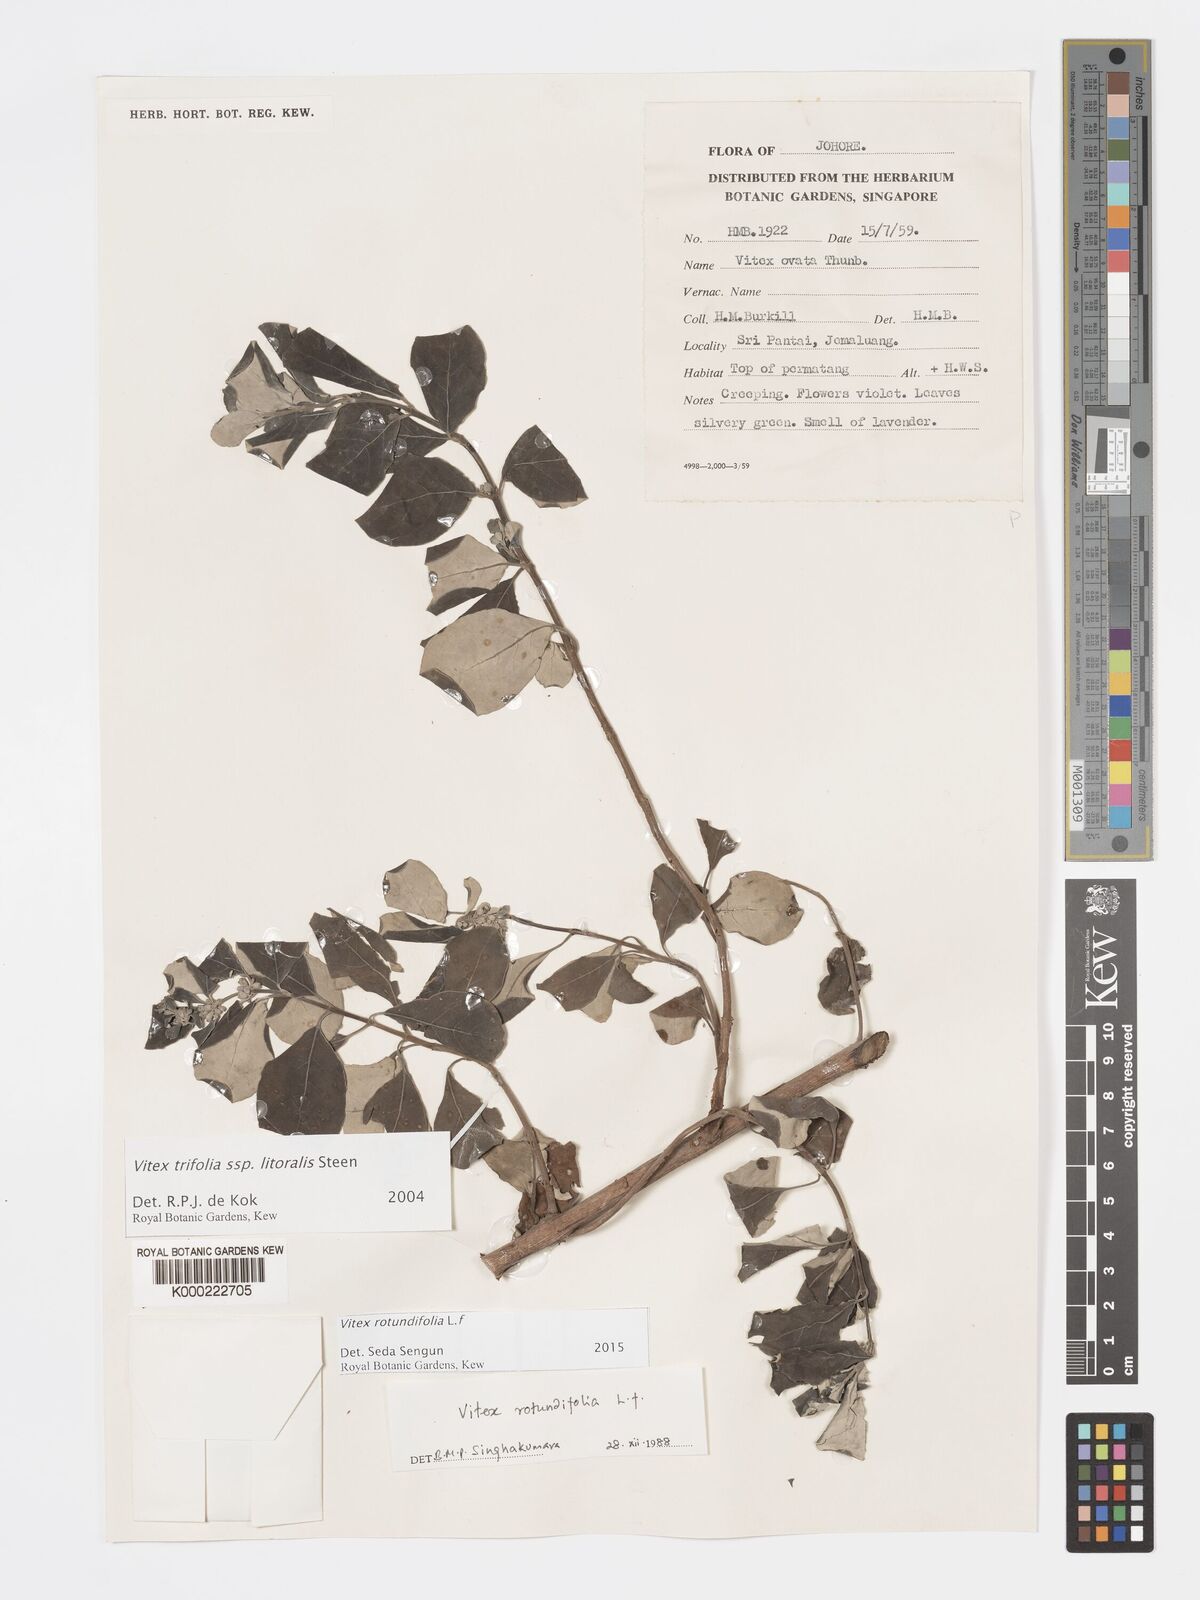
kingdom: Plantae
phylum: Tracheophyta
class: Magnoliopsida
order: Lamiales
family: Lamiaceae
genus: Vitex
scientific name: Vitex rotundifolia
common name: Beach vitex
